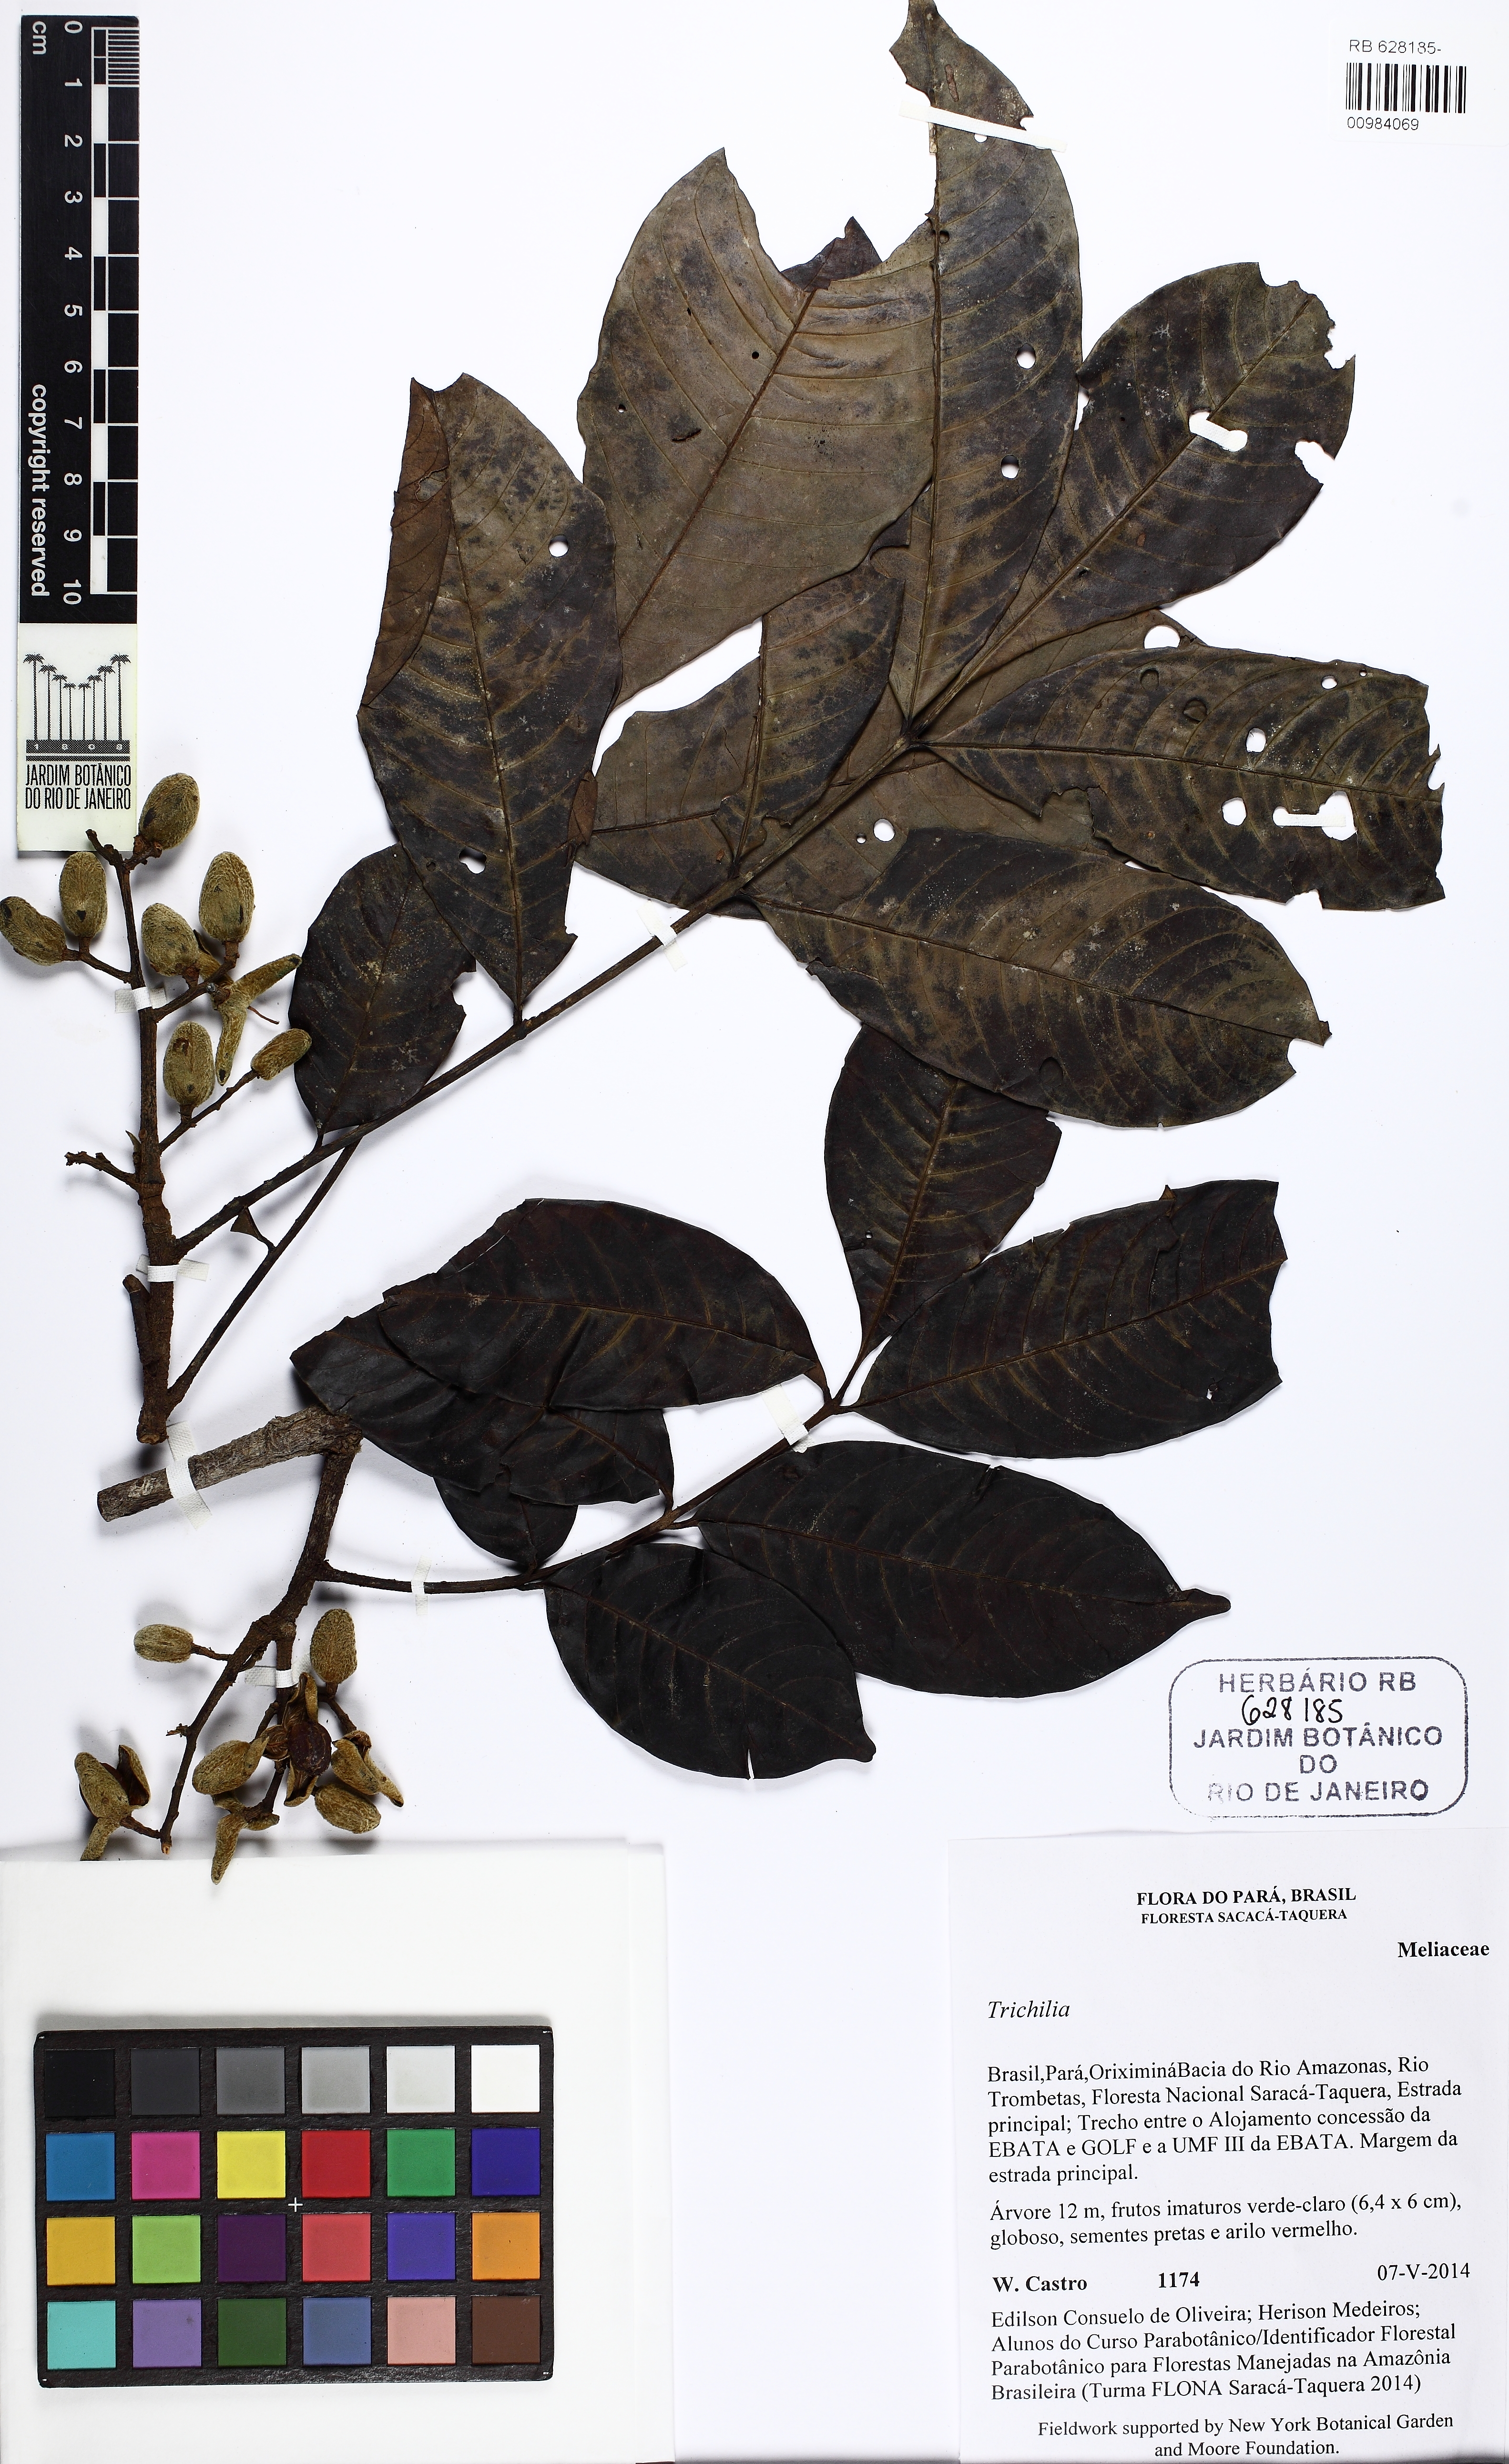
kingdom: Plantae
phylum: Tracheophyta
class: Magnoliopsida
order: Sapindales
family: Meliaceae
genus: Trichilia
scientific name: Trichilia martiana
